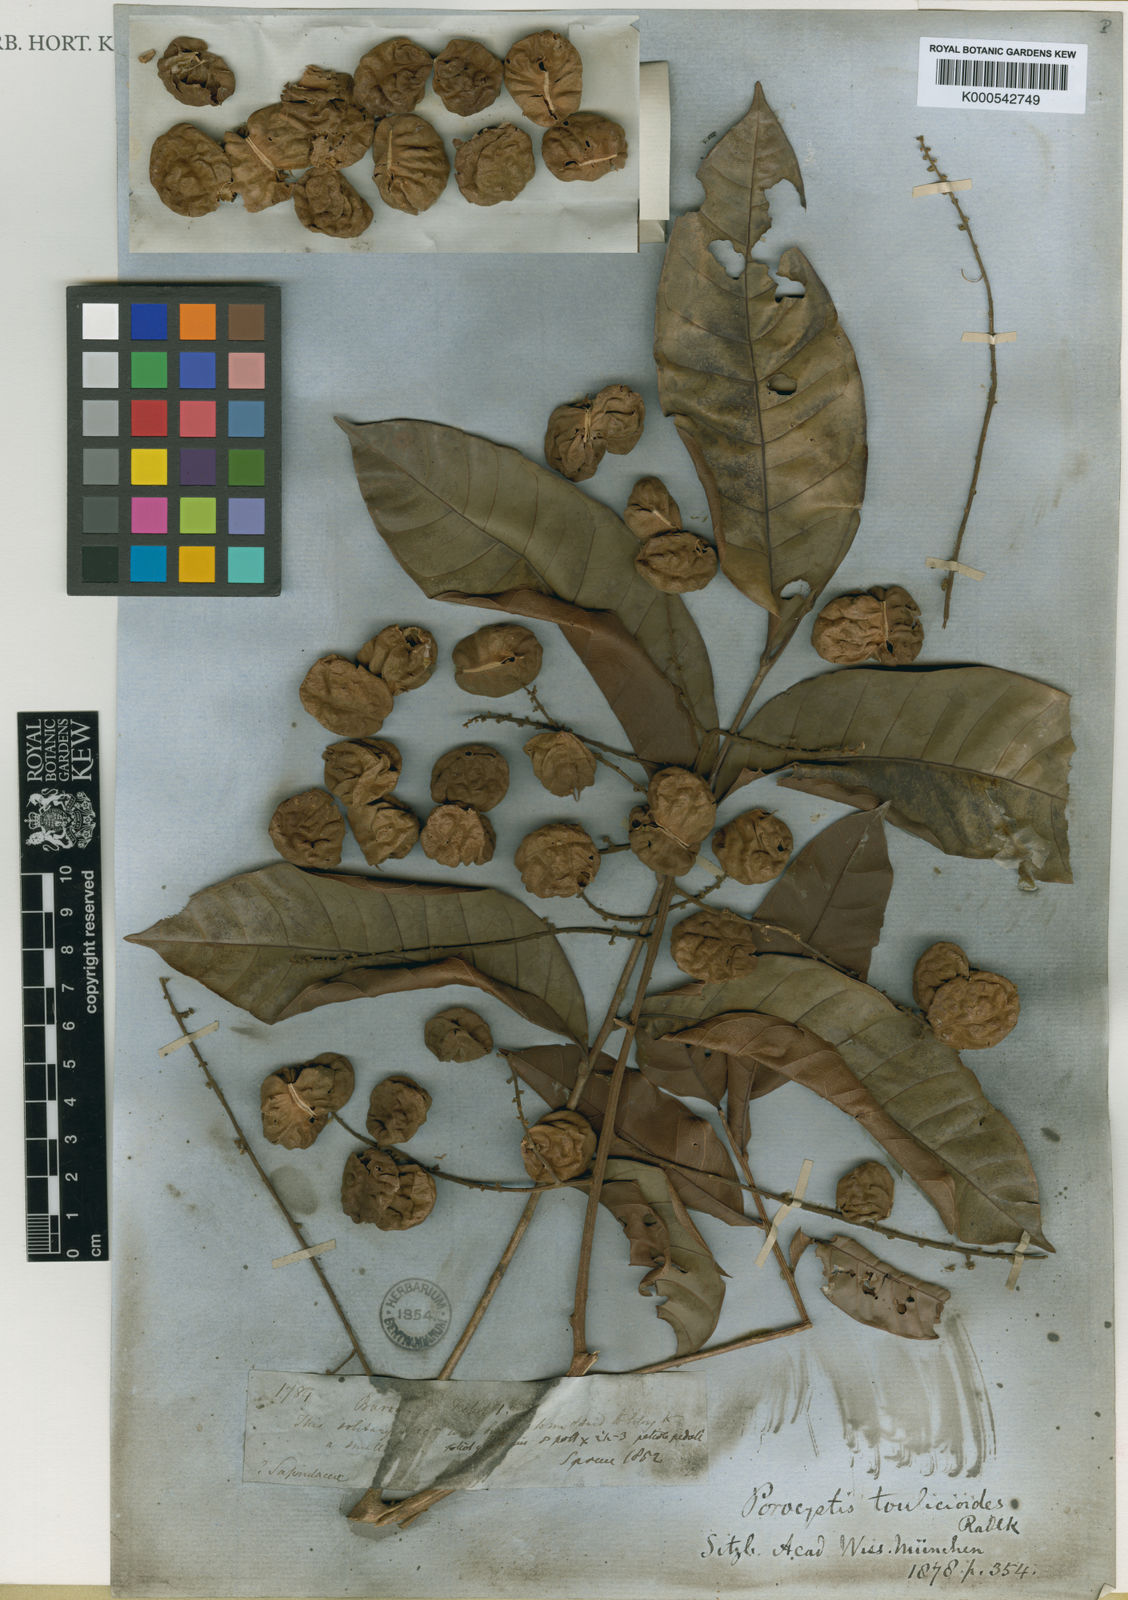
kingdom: Plantae
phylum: Tracheophyta
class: Magnoliopsida
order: Sapindales
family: Sapindaceae
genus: Porocystis
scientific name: Porocystis toulicioides
